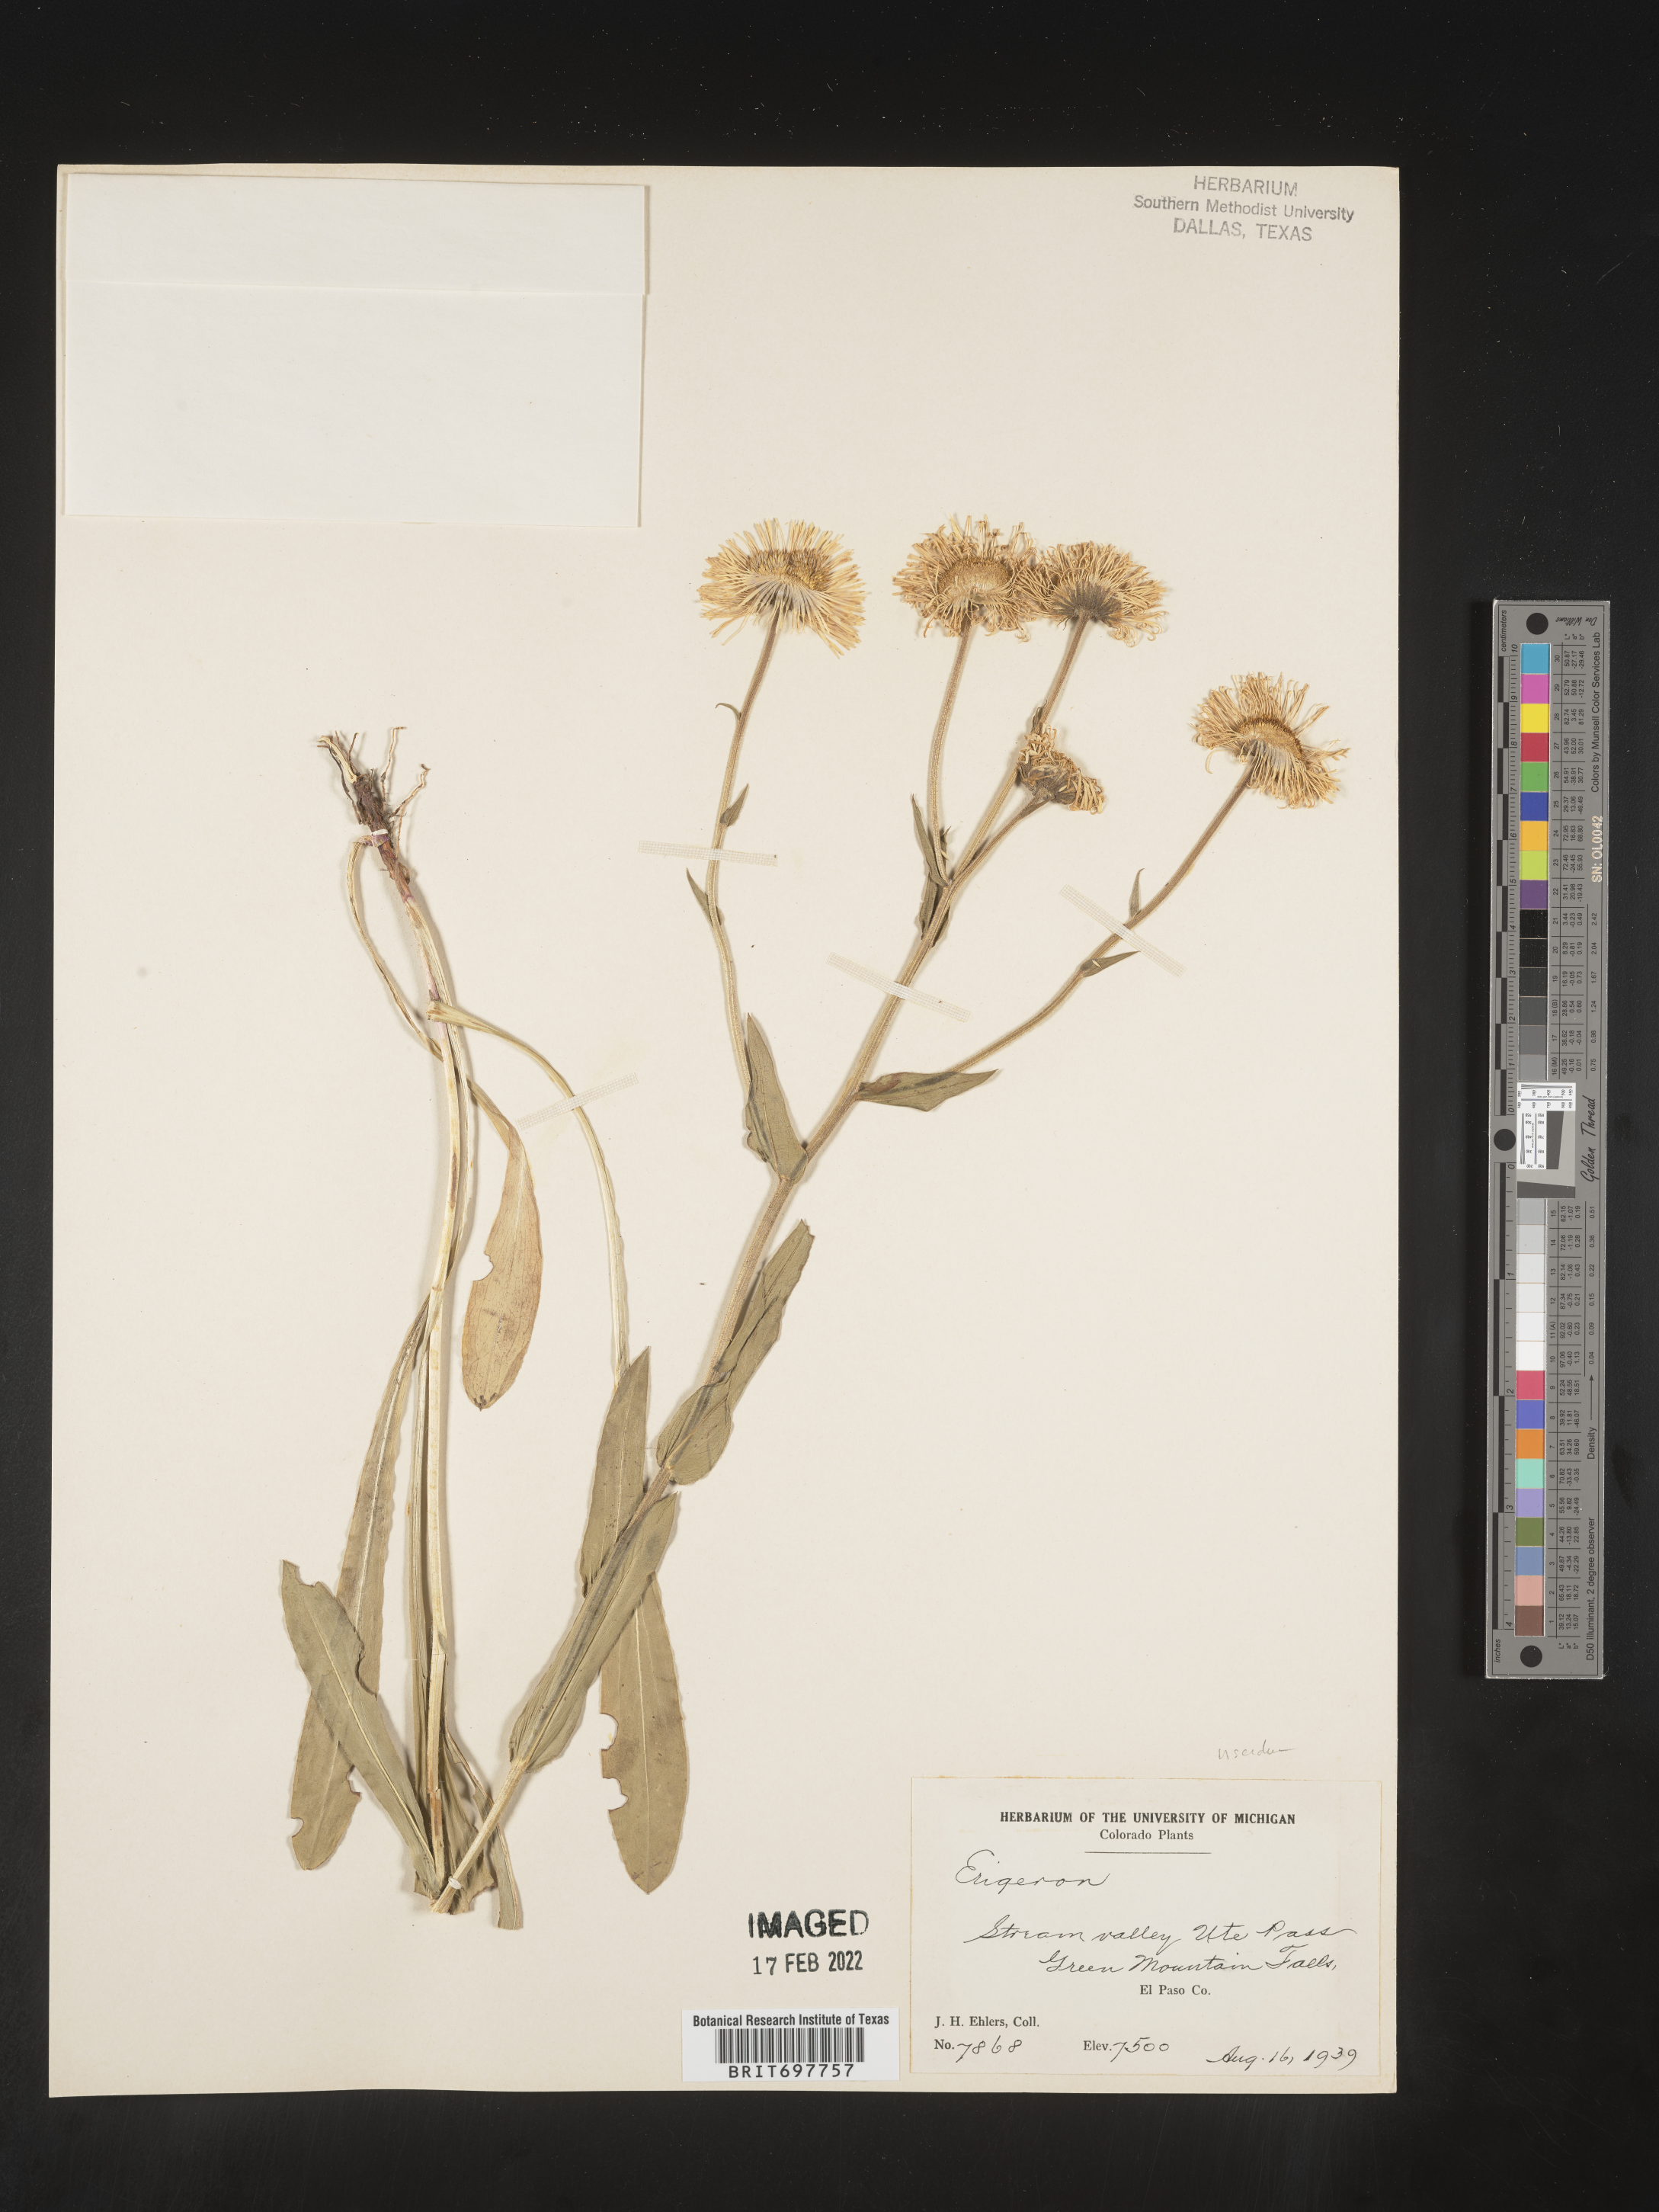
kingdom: Plantae
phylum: Tracheophyta
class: Magnoliopsida
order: Asterales
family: Asteraceae
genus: Erigeron
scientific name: Erigeron formosissimus
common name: Beautiful fleabane
